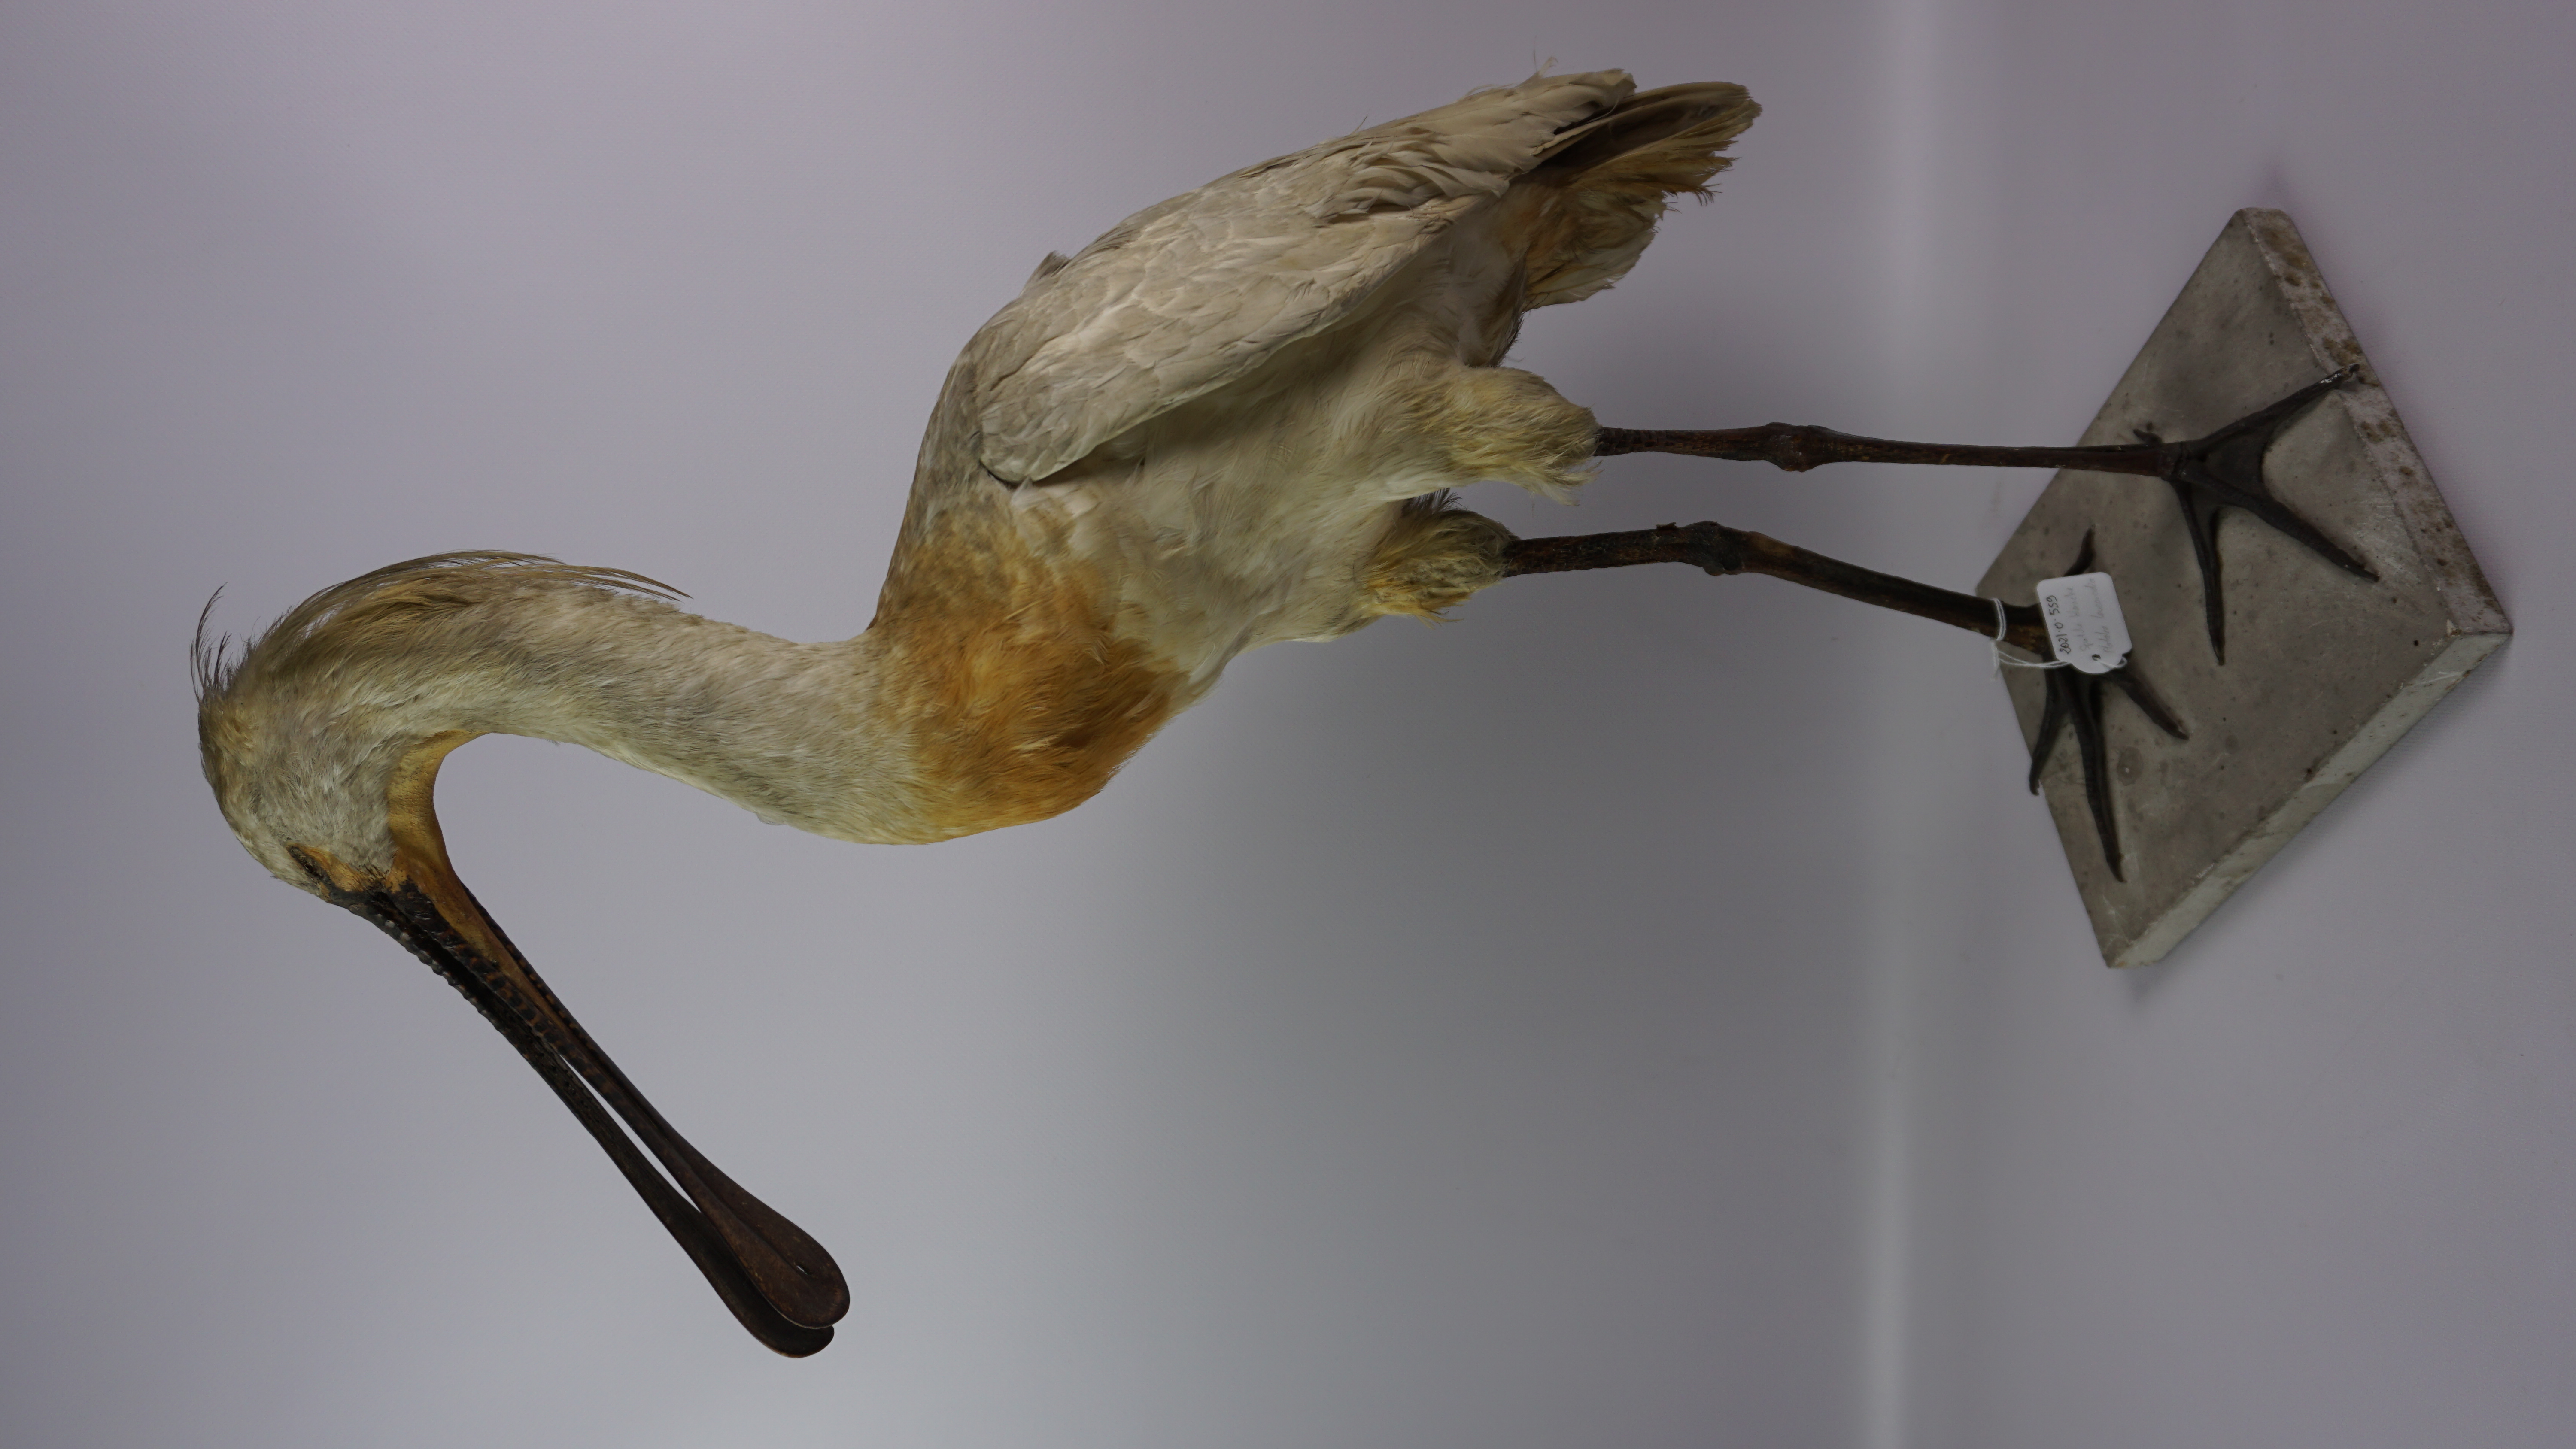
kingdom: Animalia
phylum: Chordata
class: Aves
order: Pelecaniformes
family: Threskiornithidae
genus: Platalea
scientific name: Platalea leucorodia
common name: Eurasian spoonbill
